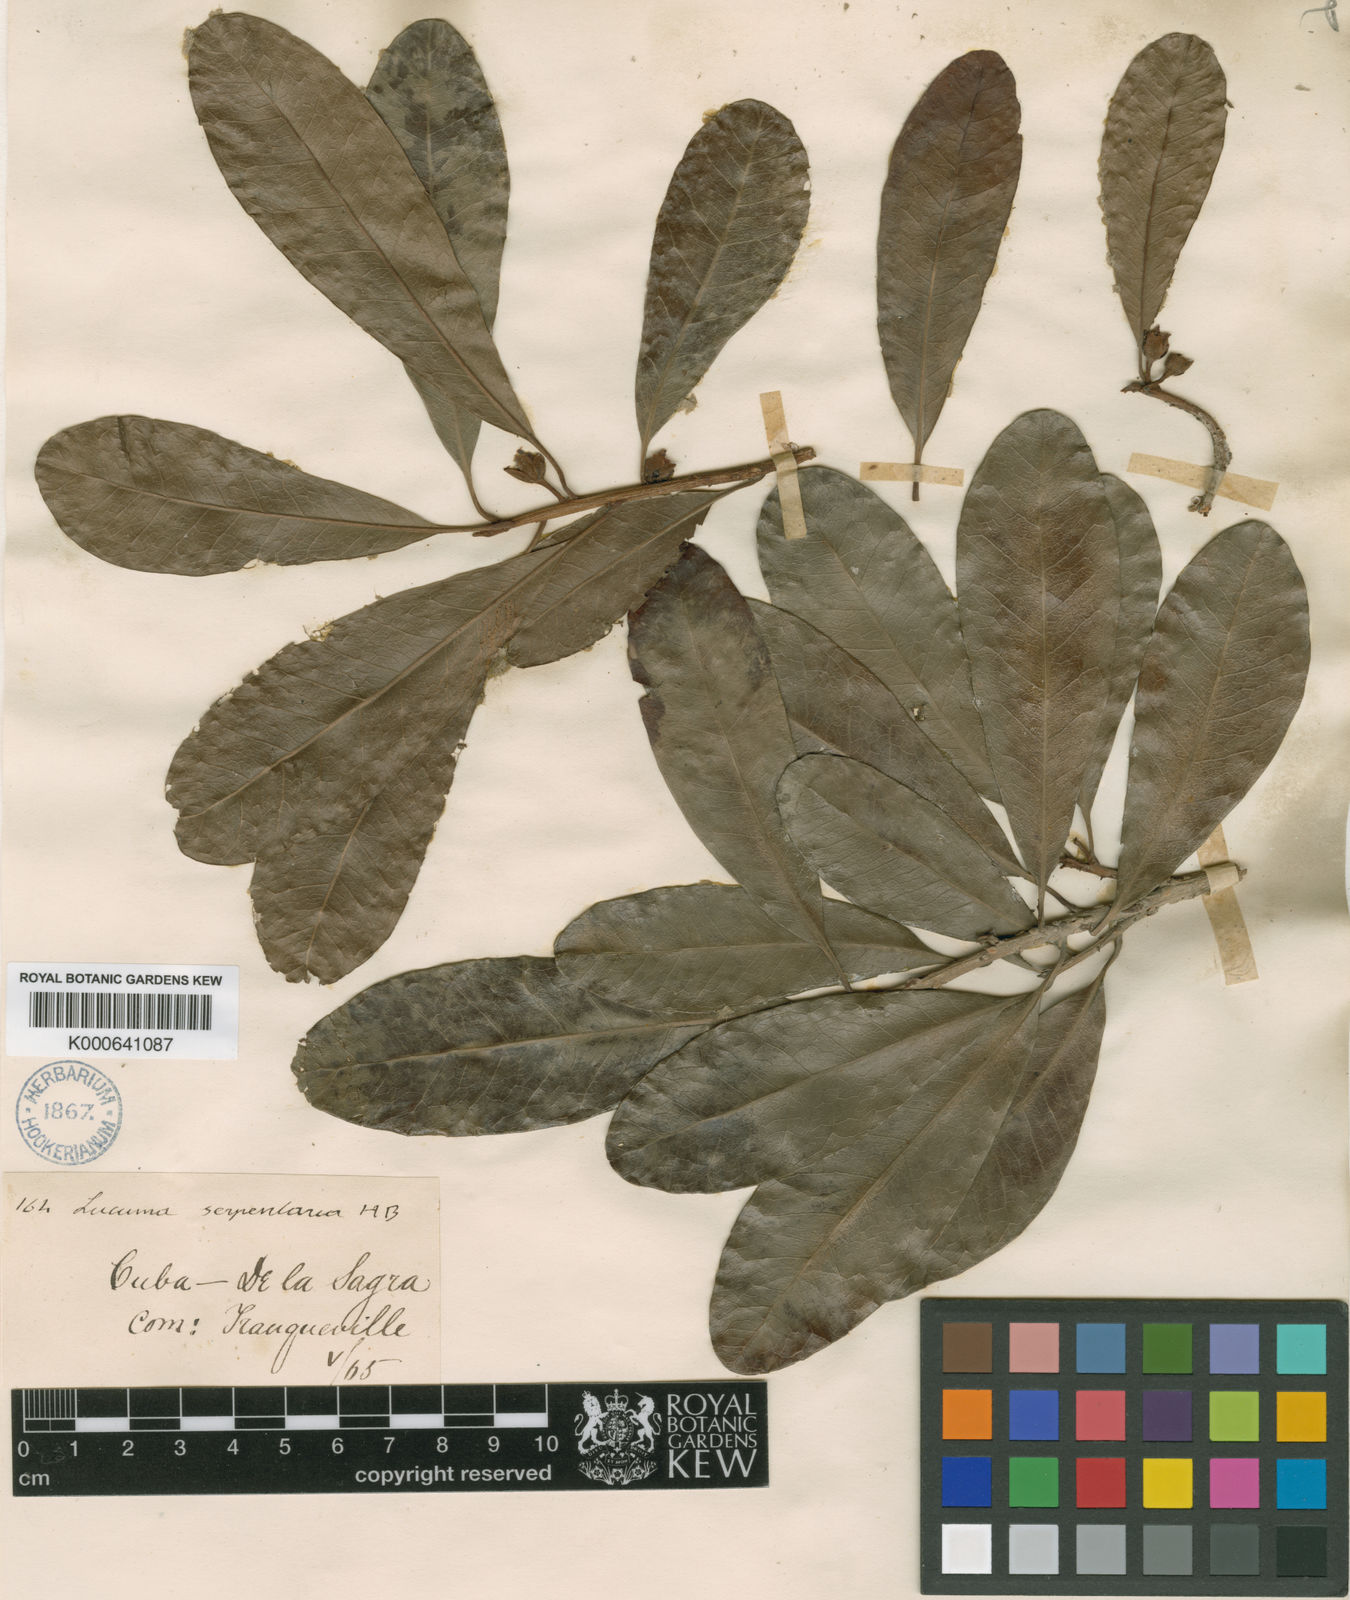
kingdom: Plantae
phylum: Tracheophyta
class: Magnoliopsida
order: Ericales
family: Sapotaceae
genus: Pouteria
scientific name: Pouteria dominigensis
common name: Jacana
